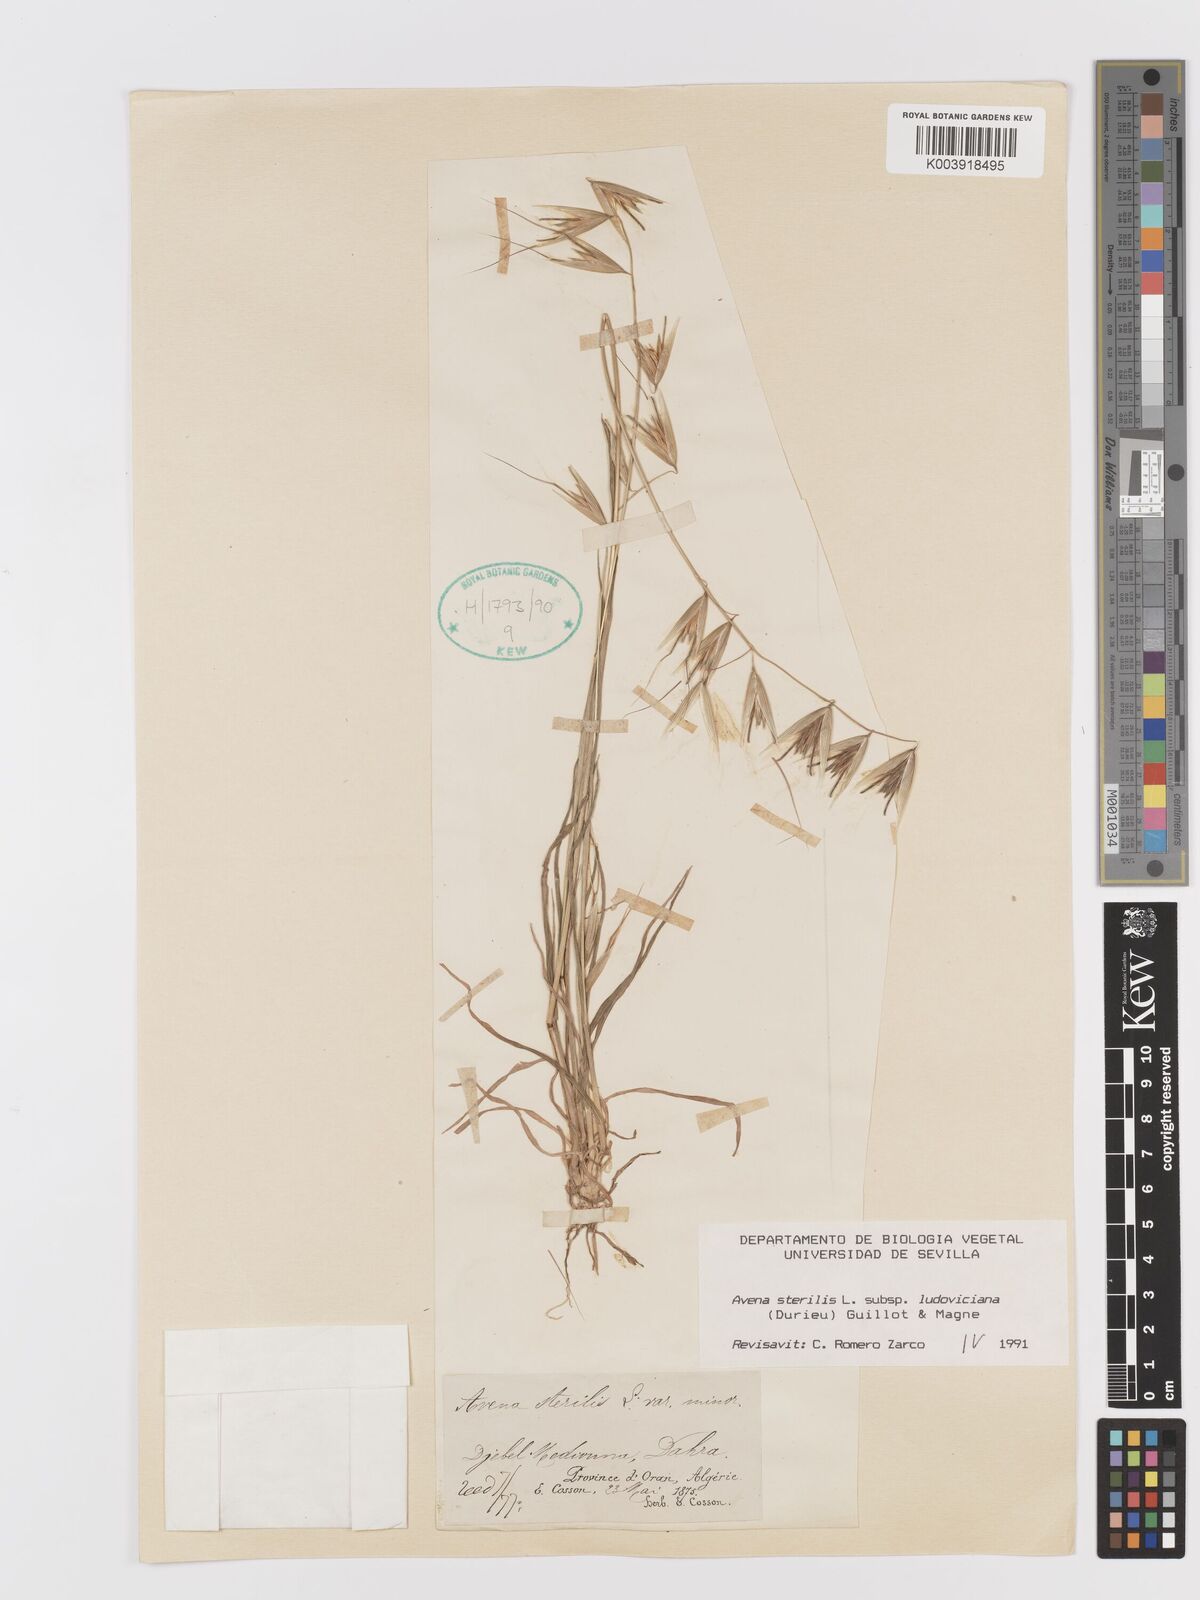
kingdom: Plantae
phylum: Tracheophyta
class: Liliopsida
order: Poales
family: Poaceae
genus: Avena
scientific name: Avena sterilis
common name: Animated oat
